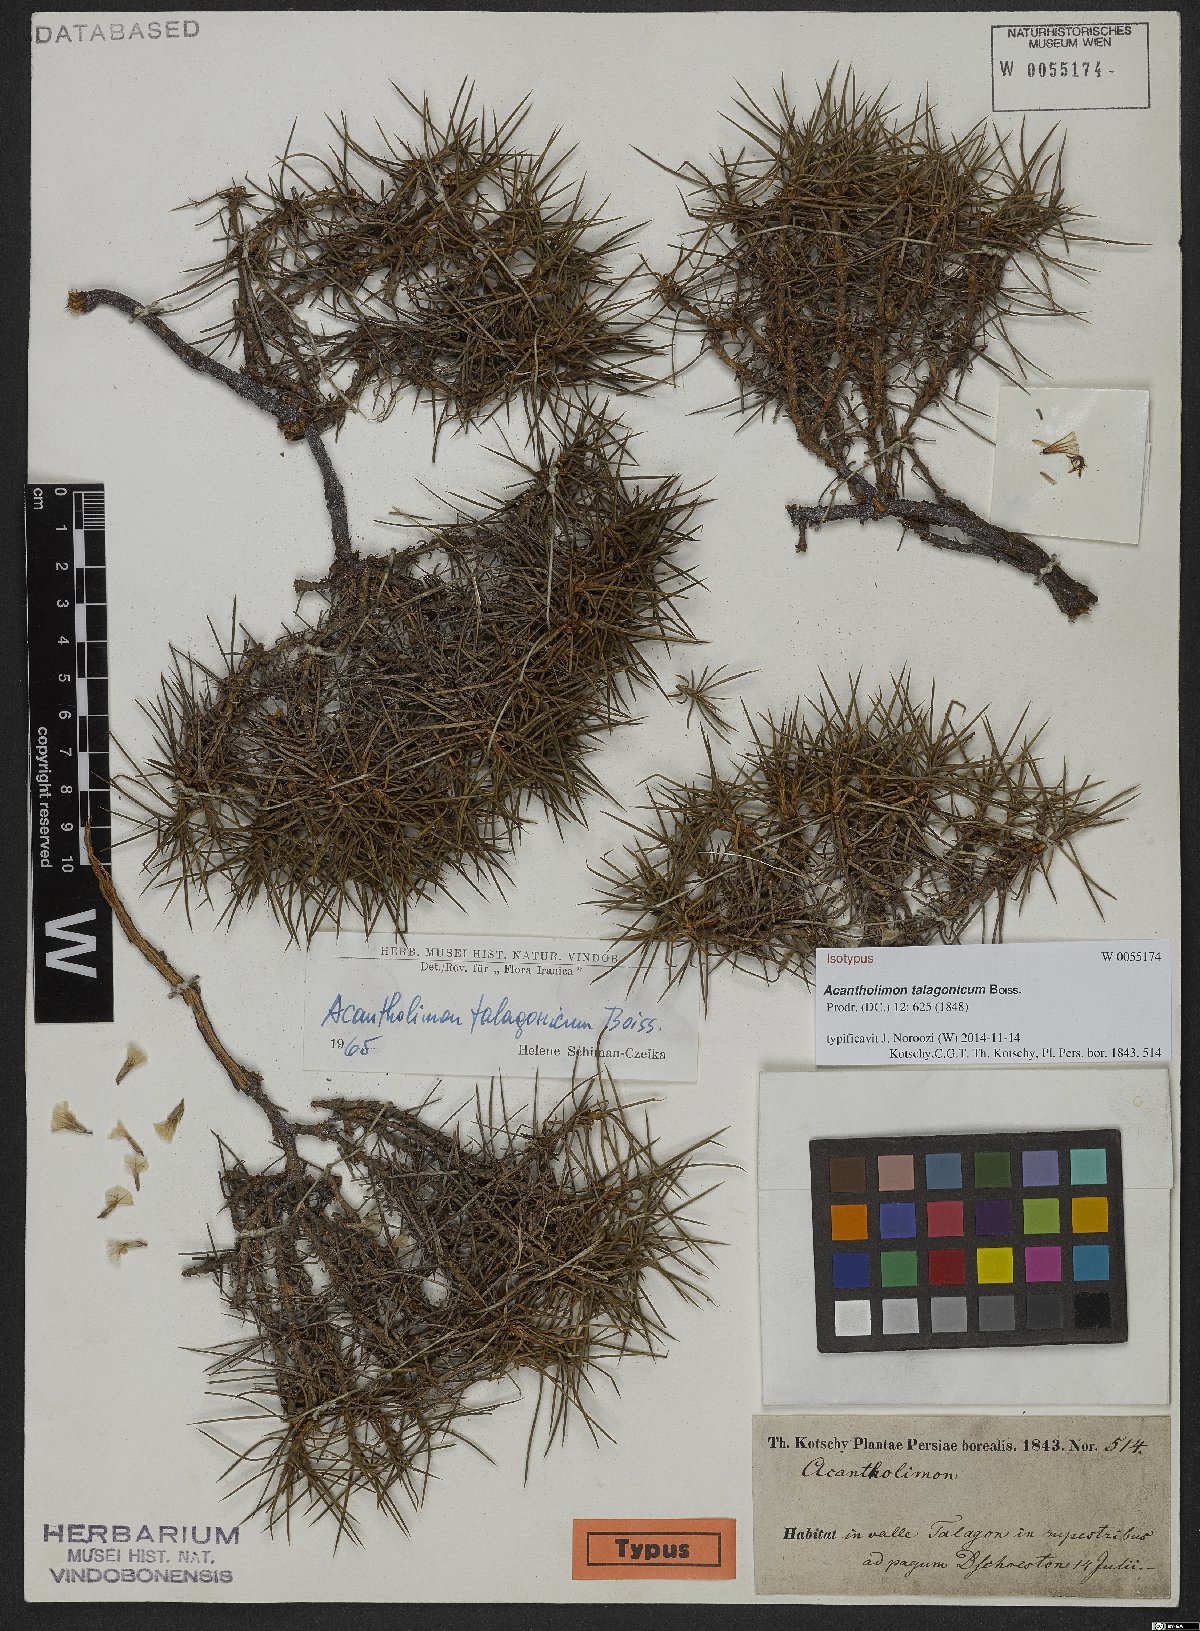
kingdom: Plantae
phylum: Tracheophyta
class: Magnoliopsida
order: Caryophyllales
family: Plumbaginaceae
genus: Acantholimon
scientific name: Acantholimon talagonicum
